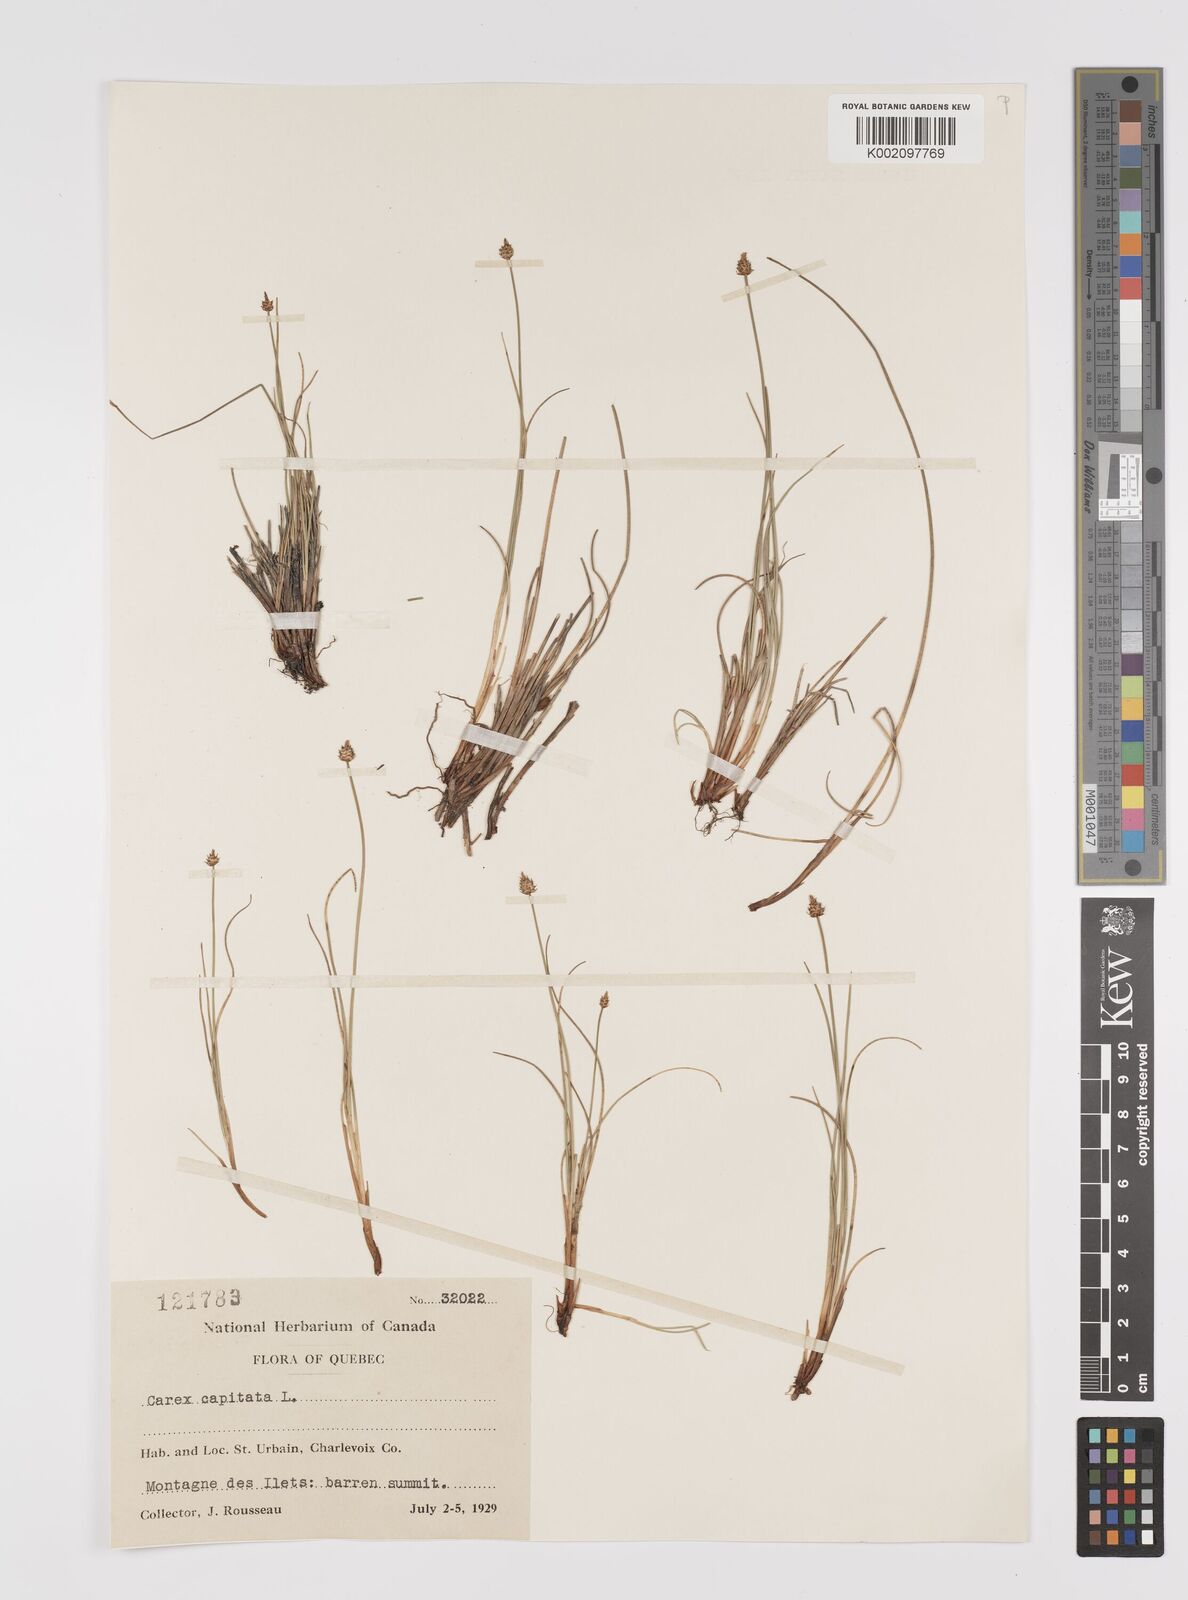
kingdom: Plantae
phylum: Tracheophyta
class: Liliopsida
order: Poales
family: Cyperaceae
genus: Carex
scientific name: Carex capitata
